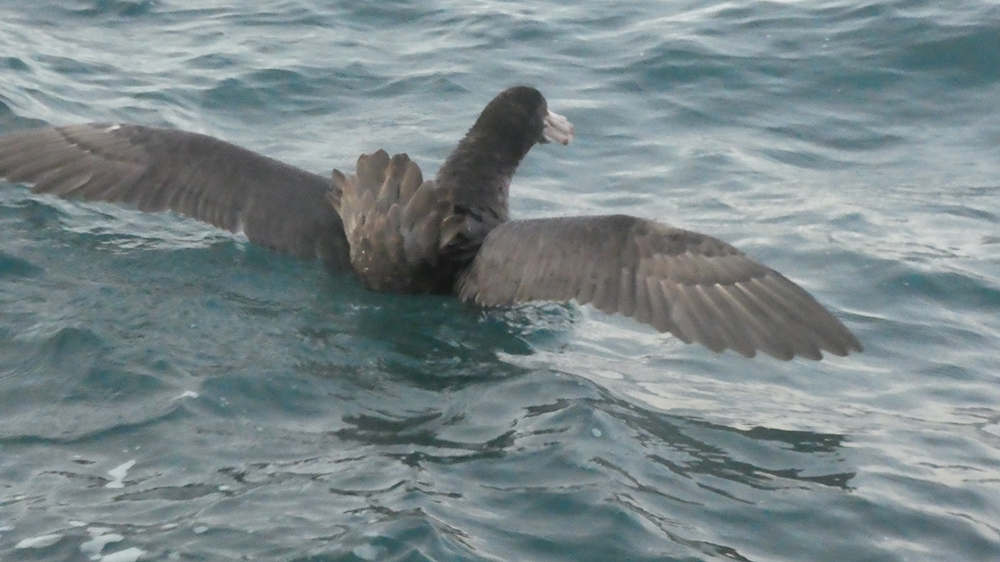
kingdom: Animalia
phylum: Chordata
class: Aves
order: Procellariiformes
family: Procellariidae
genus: Macronectes
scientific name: Macronectes halli
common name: Northern giant petrel
